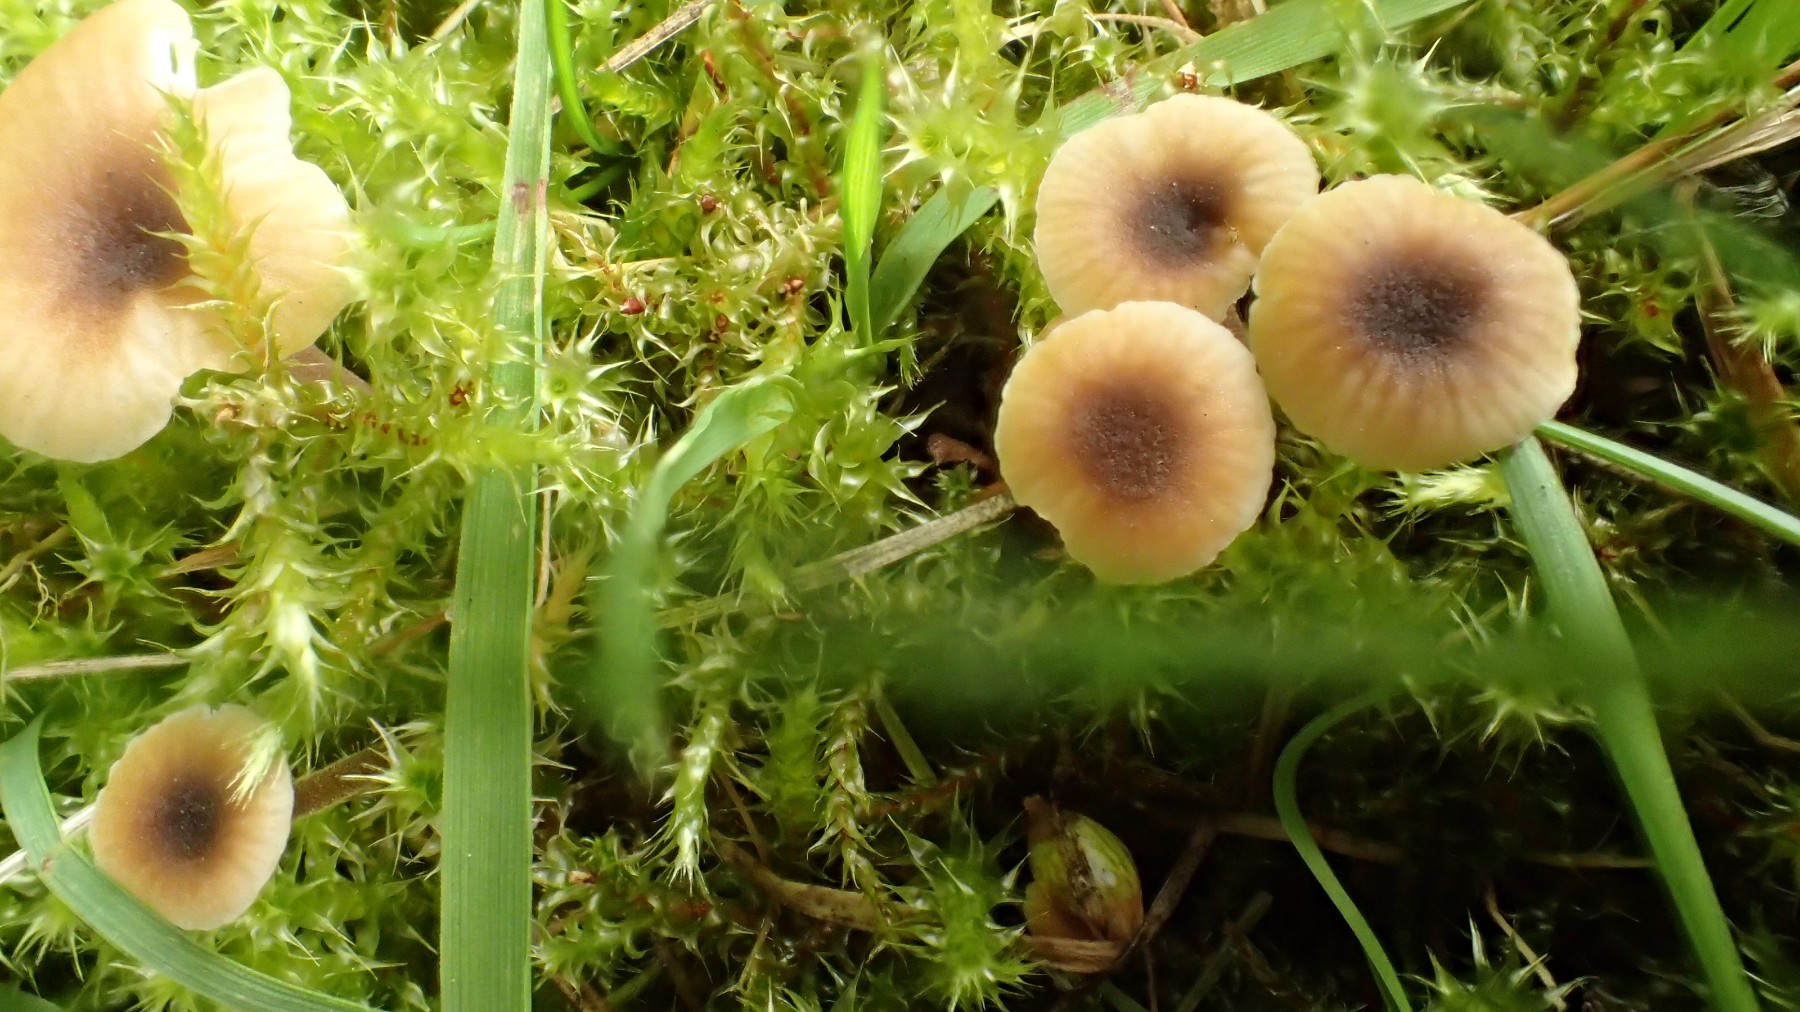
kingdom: Fungi
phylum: Basidiomycota
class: Agaricomycetes
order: Hymenochaetales
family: Rickenellaceae
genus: Rickenella
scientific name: Rickenella swartzii
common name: finstokket mosnavlehat
